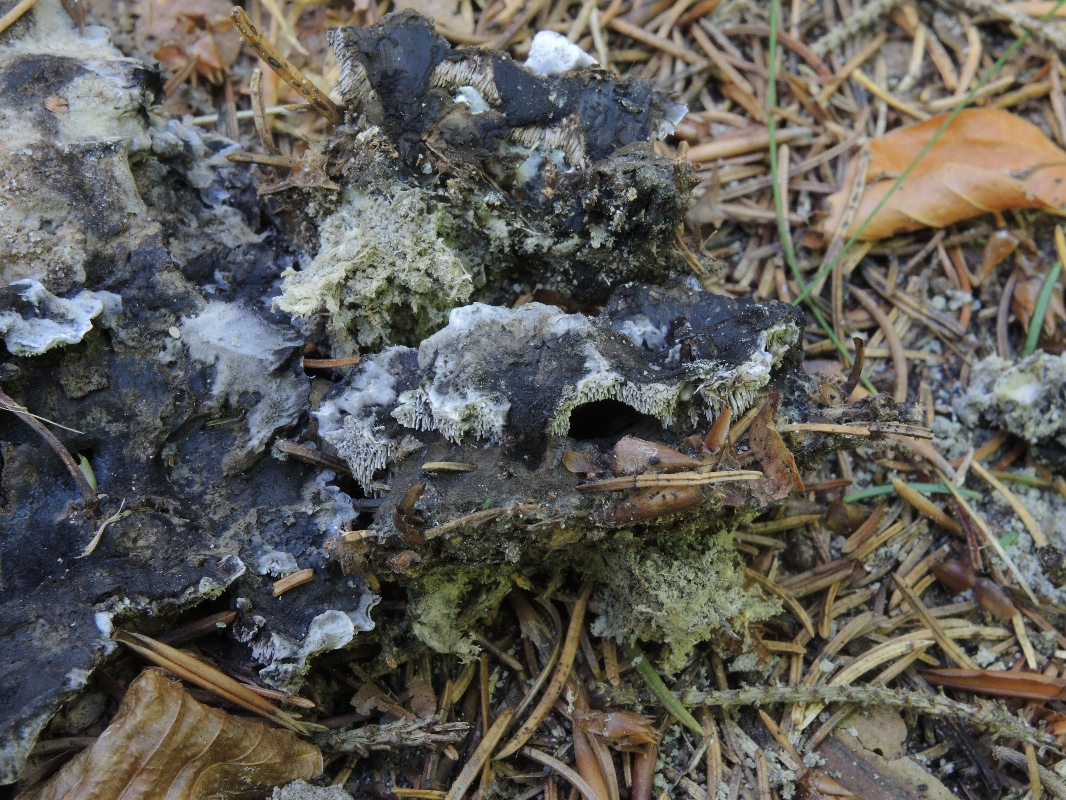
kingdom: Fungi
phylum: Basidiomycota
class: Agaricomycetes
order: Thelephorales
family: Thelephoraceae
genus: Phellodon
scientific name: Phellodon
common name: mørk duftpigsvamp
